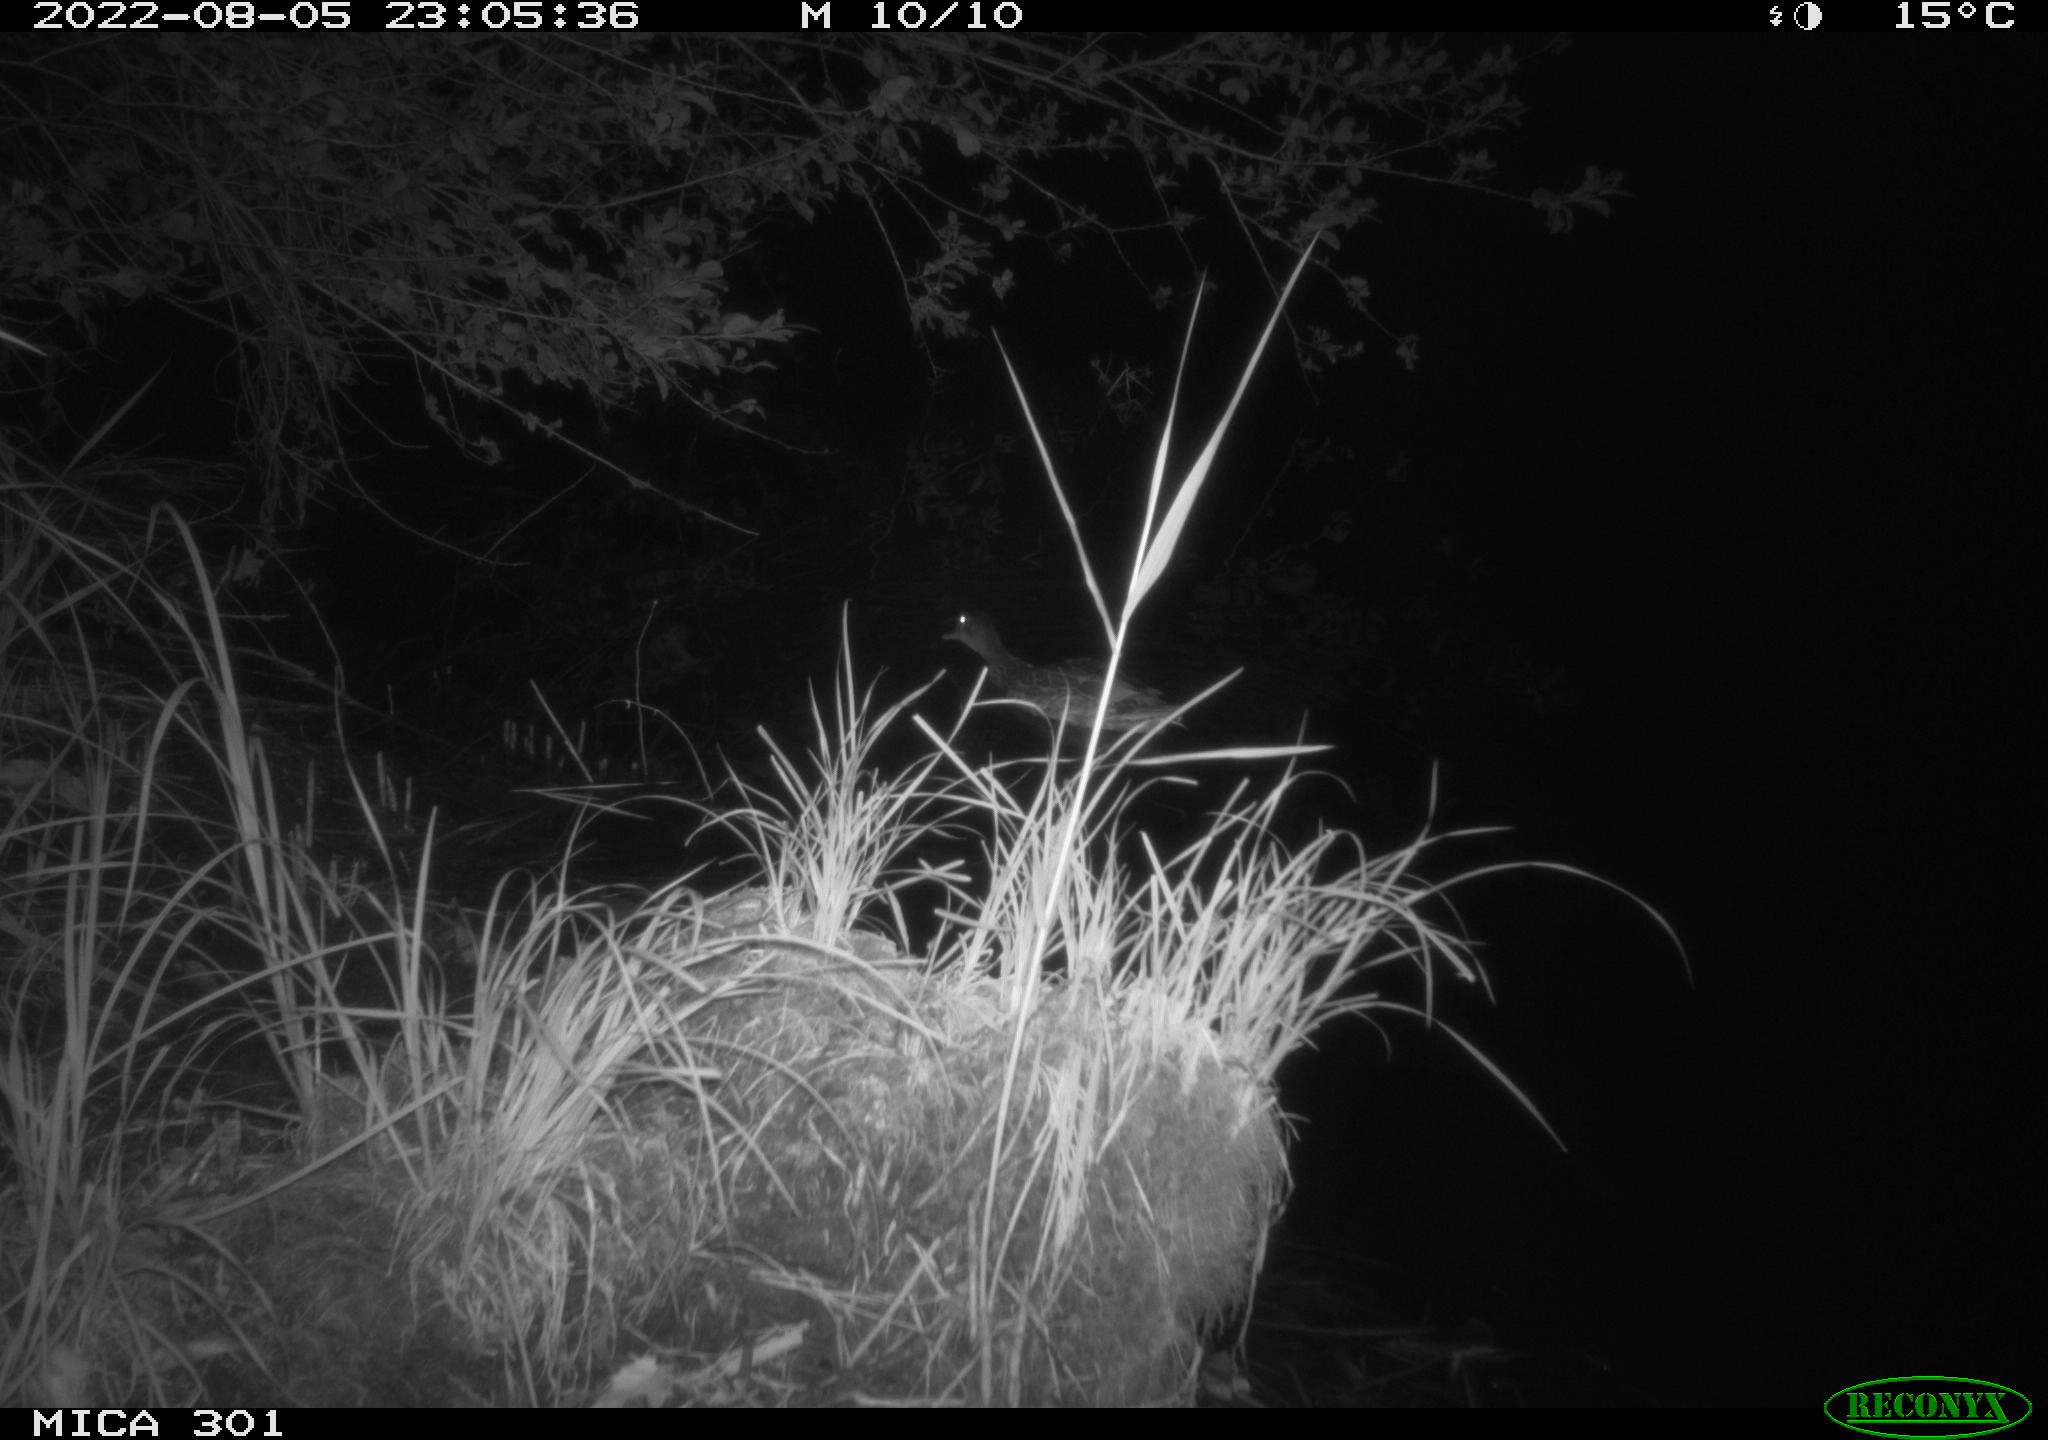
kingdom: Animalia
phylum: Chordata
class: Aves
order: Anseriformes
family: Anatidae
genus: Anas
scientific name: Anas platyrhynchos
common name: Mallard
